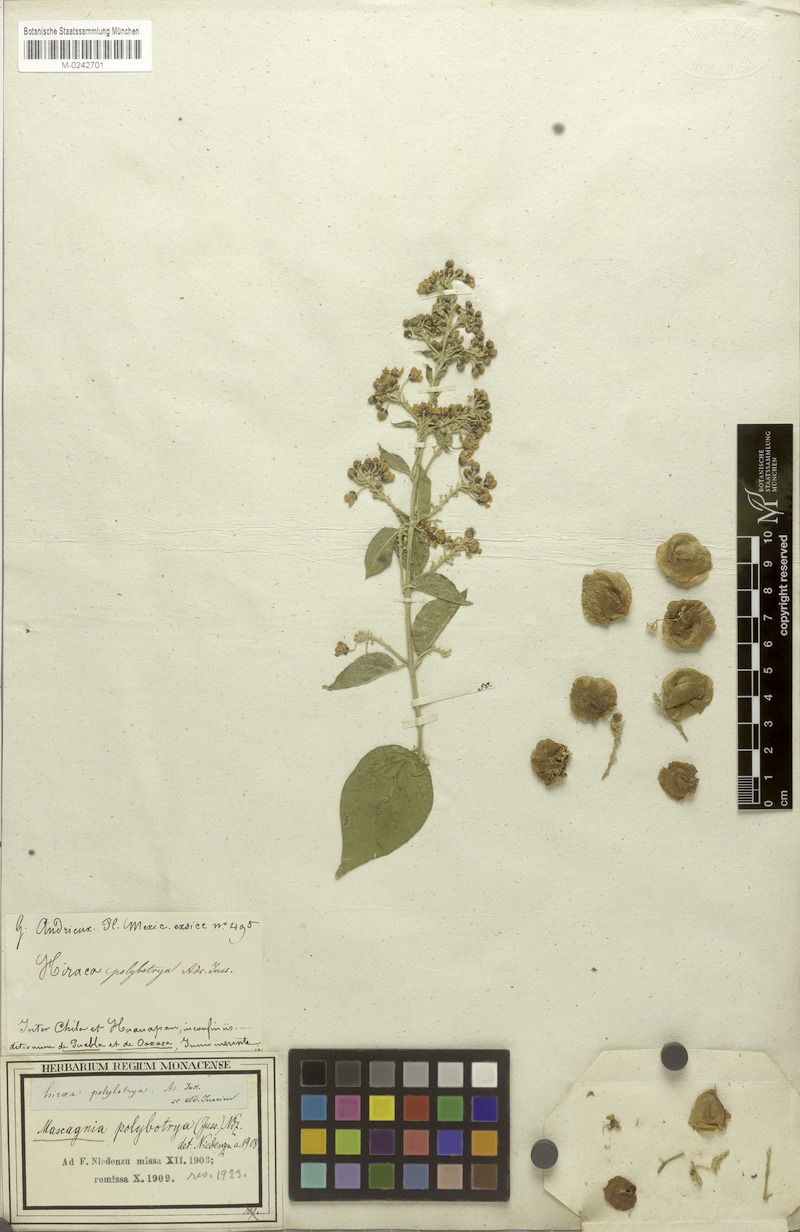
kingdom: Plantae
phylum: Tracheophyta
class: Magnoliopsida
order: Malpighiales
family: Malpighiaceae
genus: Mascagnia
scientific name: Mascagnia polybotrya
